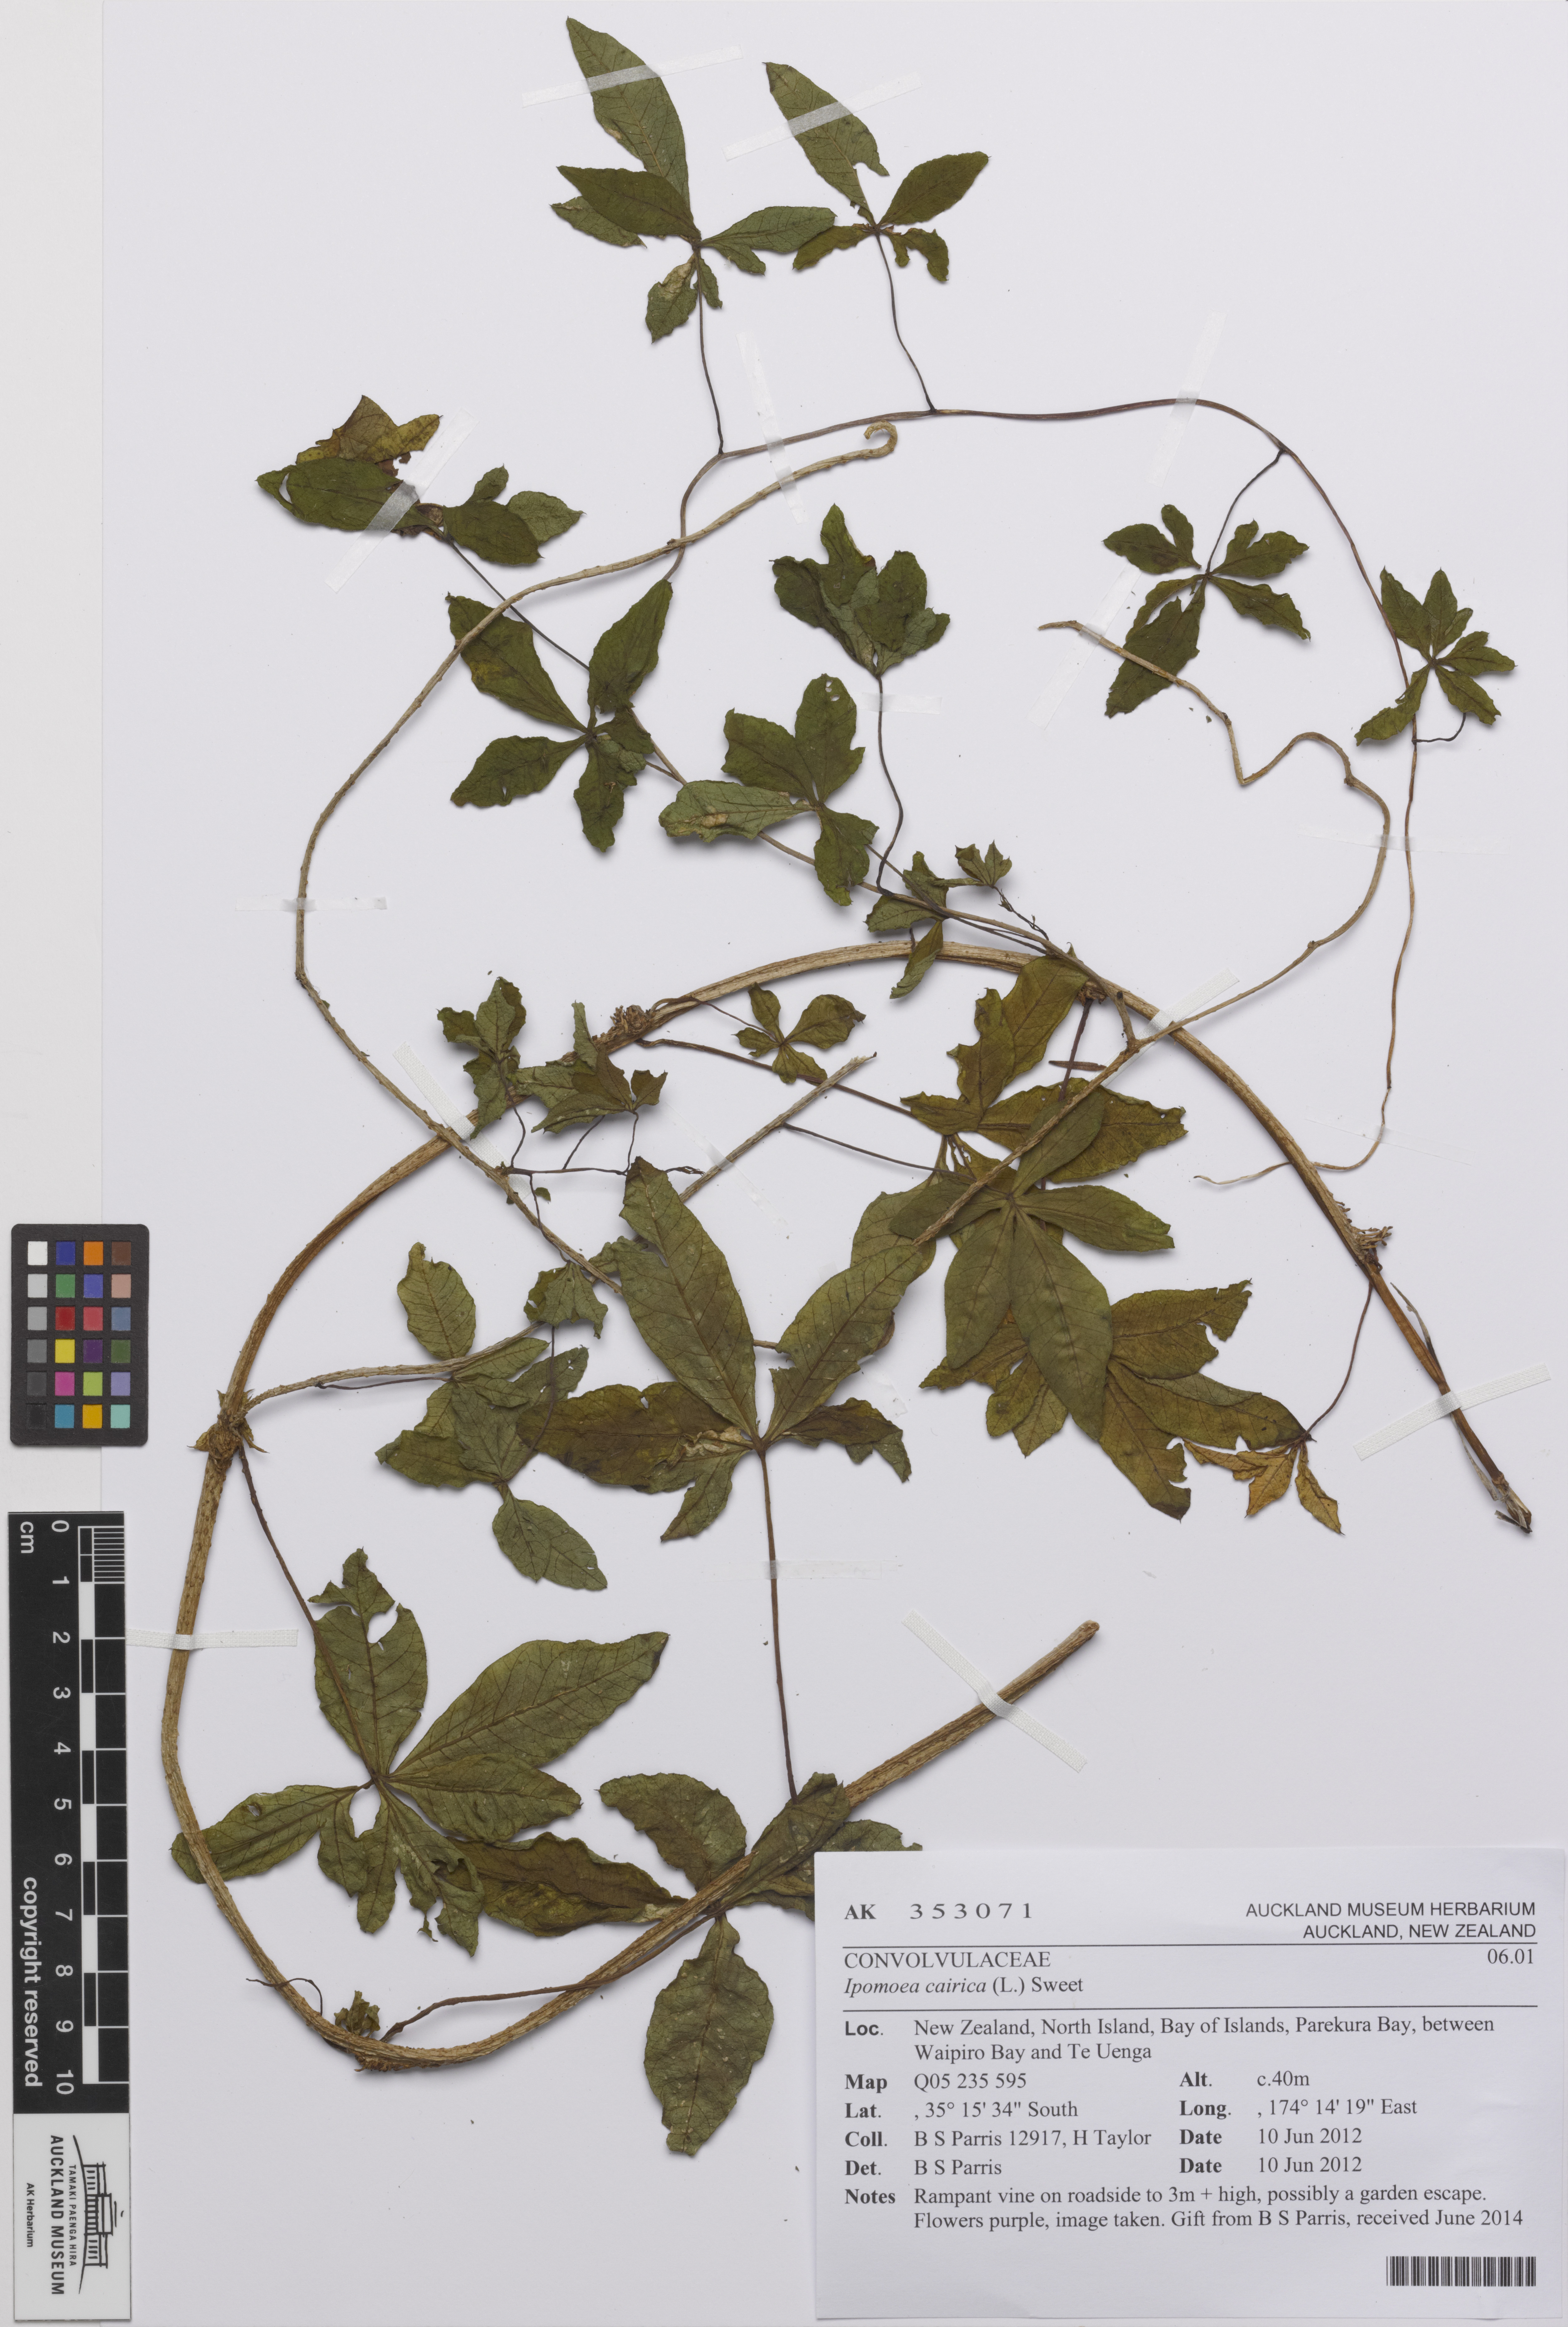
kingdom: Plantae
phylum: Tracheophyta
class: Magnoliopsida
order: Solanales
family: Convolvulaceae
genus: Ipomoea
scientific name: Ipomoea cairica
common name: Mile a minute vine
